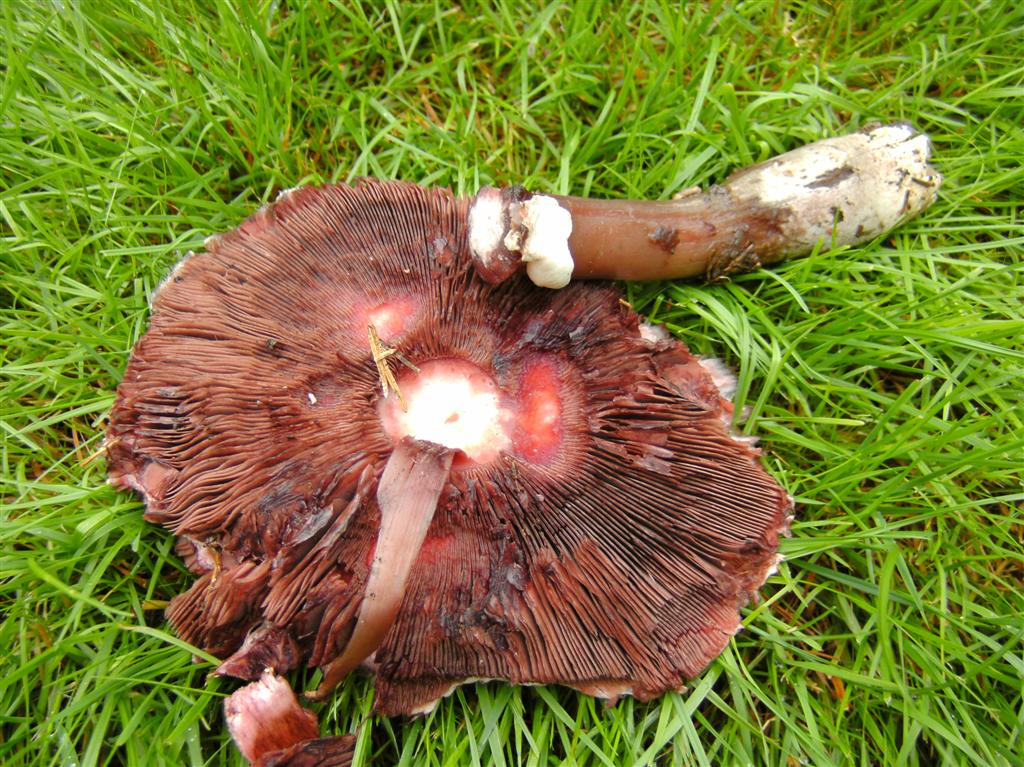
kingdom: Fungi
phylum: Basidiomycota
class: Agaricomycetes
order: Agaricales
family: Agaricaceae
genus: Agaricus
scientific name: Agaricus langei
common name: stor blod-champignon
